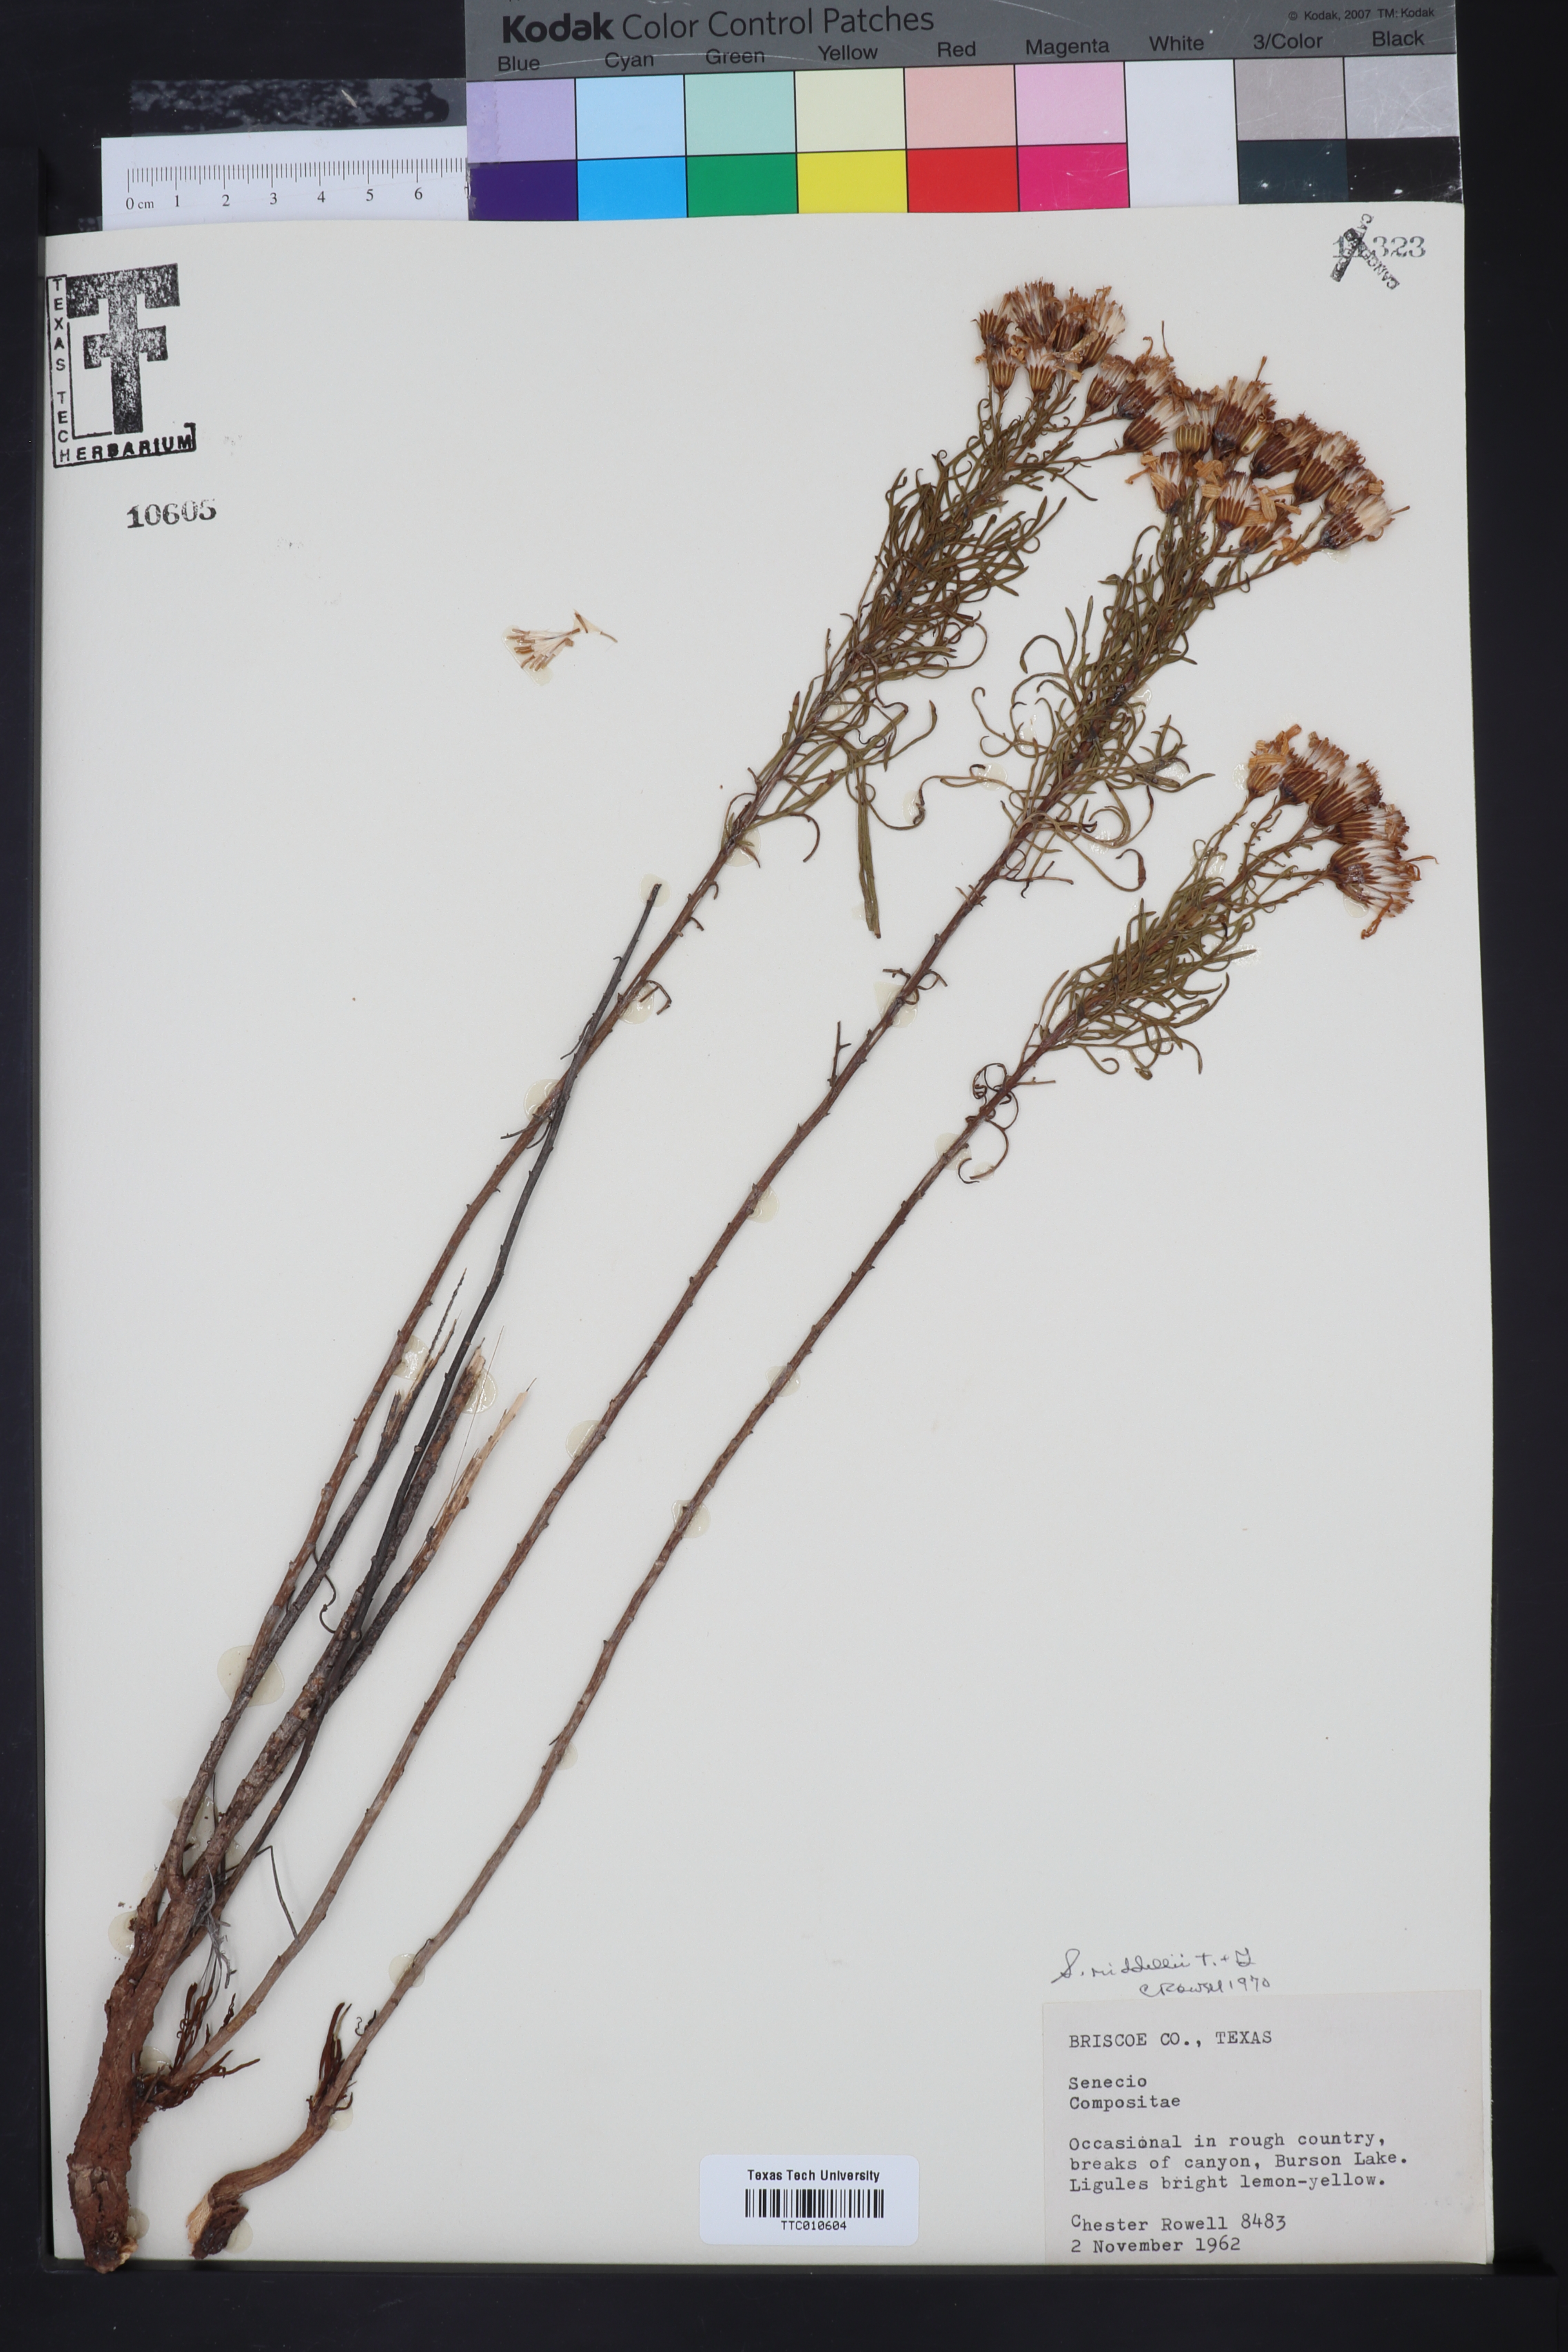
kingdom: Plantae
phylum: Tracheophyta
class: Magnoliopsida
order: Asterales
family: Asteraceae
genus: Senecio
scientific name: Senecio riddellii
